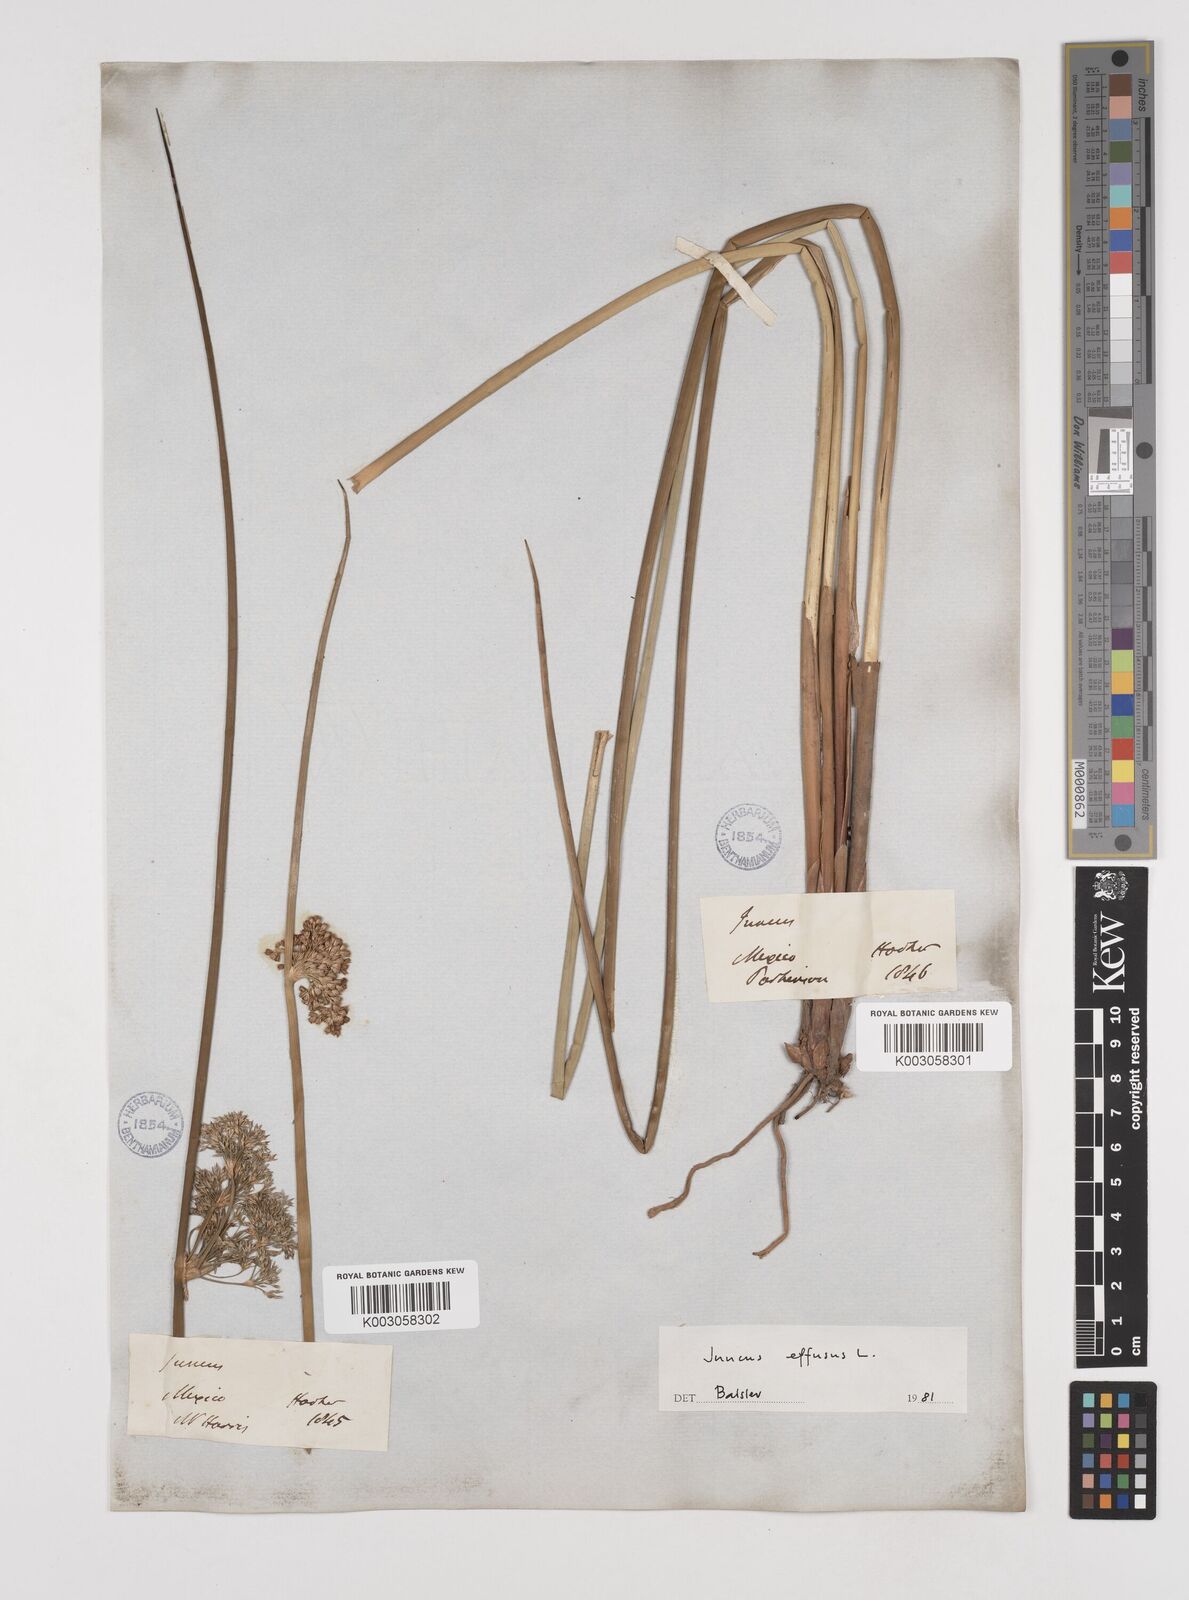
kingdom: Plantae
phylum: Tracheophyta
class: Liliopsida
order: Poales
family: Juncaceae
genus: Juncus
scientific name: Juncus effusus
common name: Soft rush
